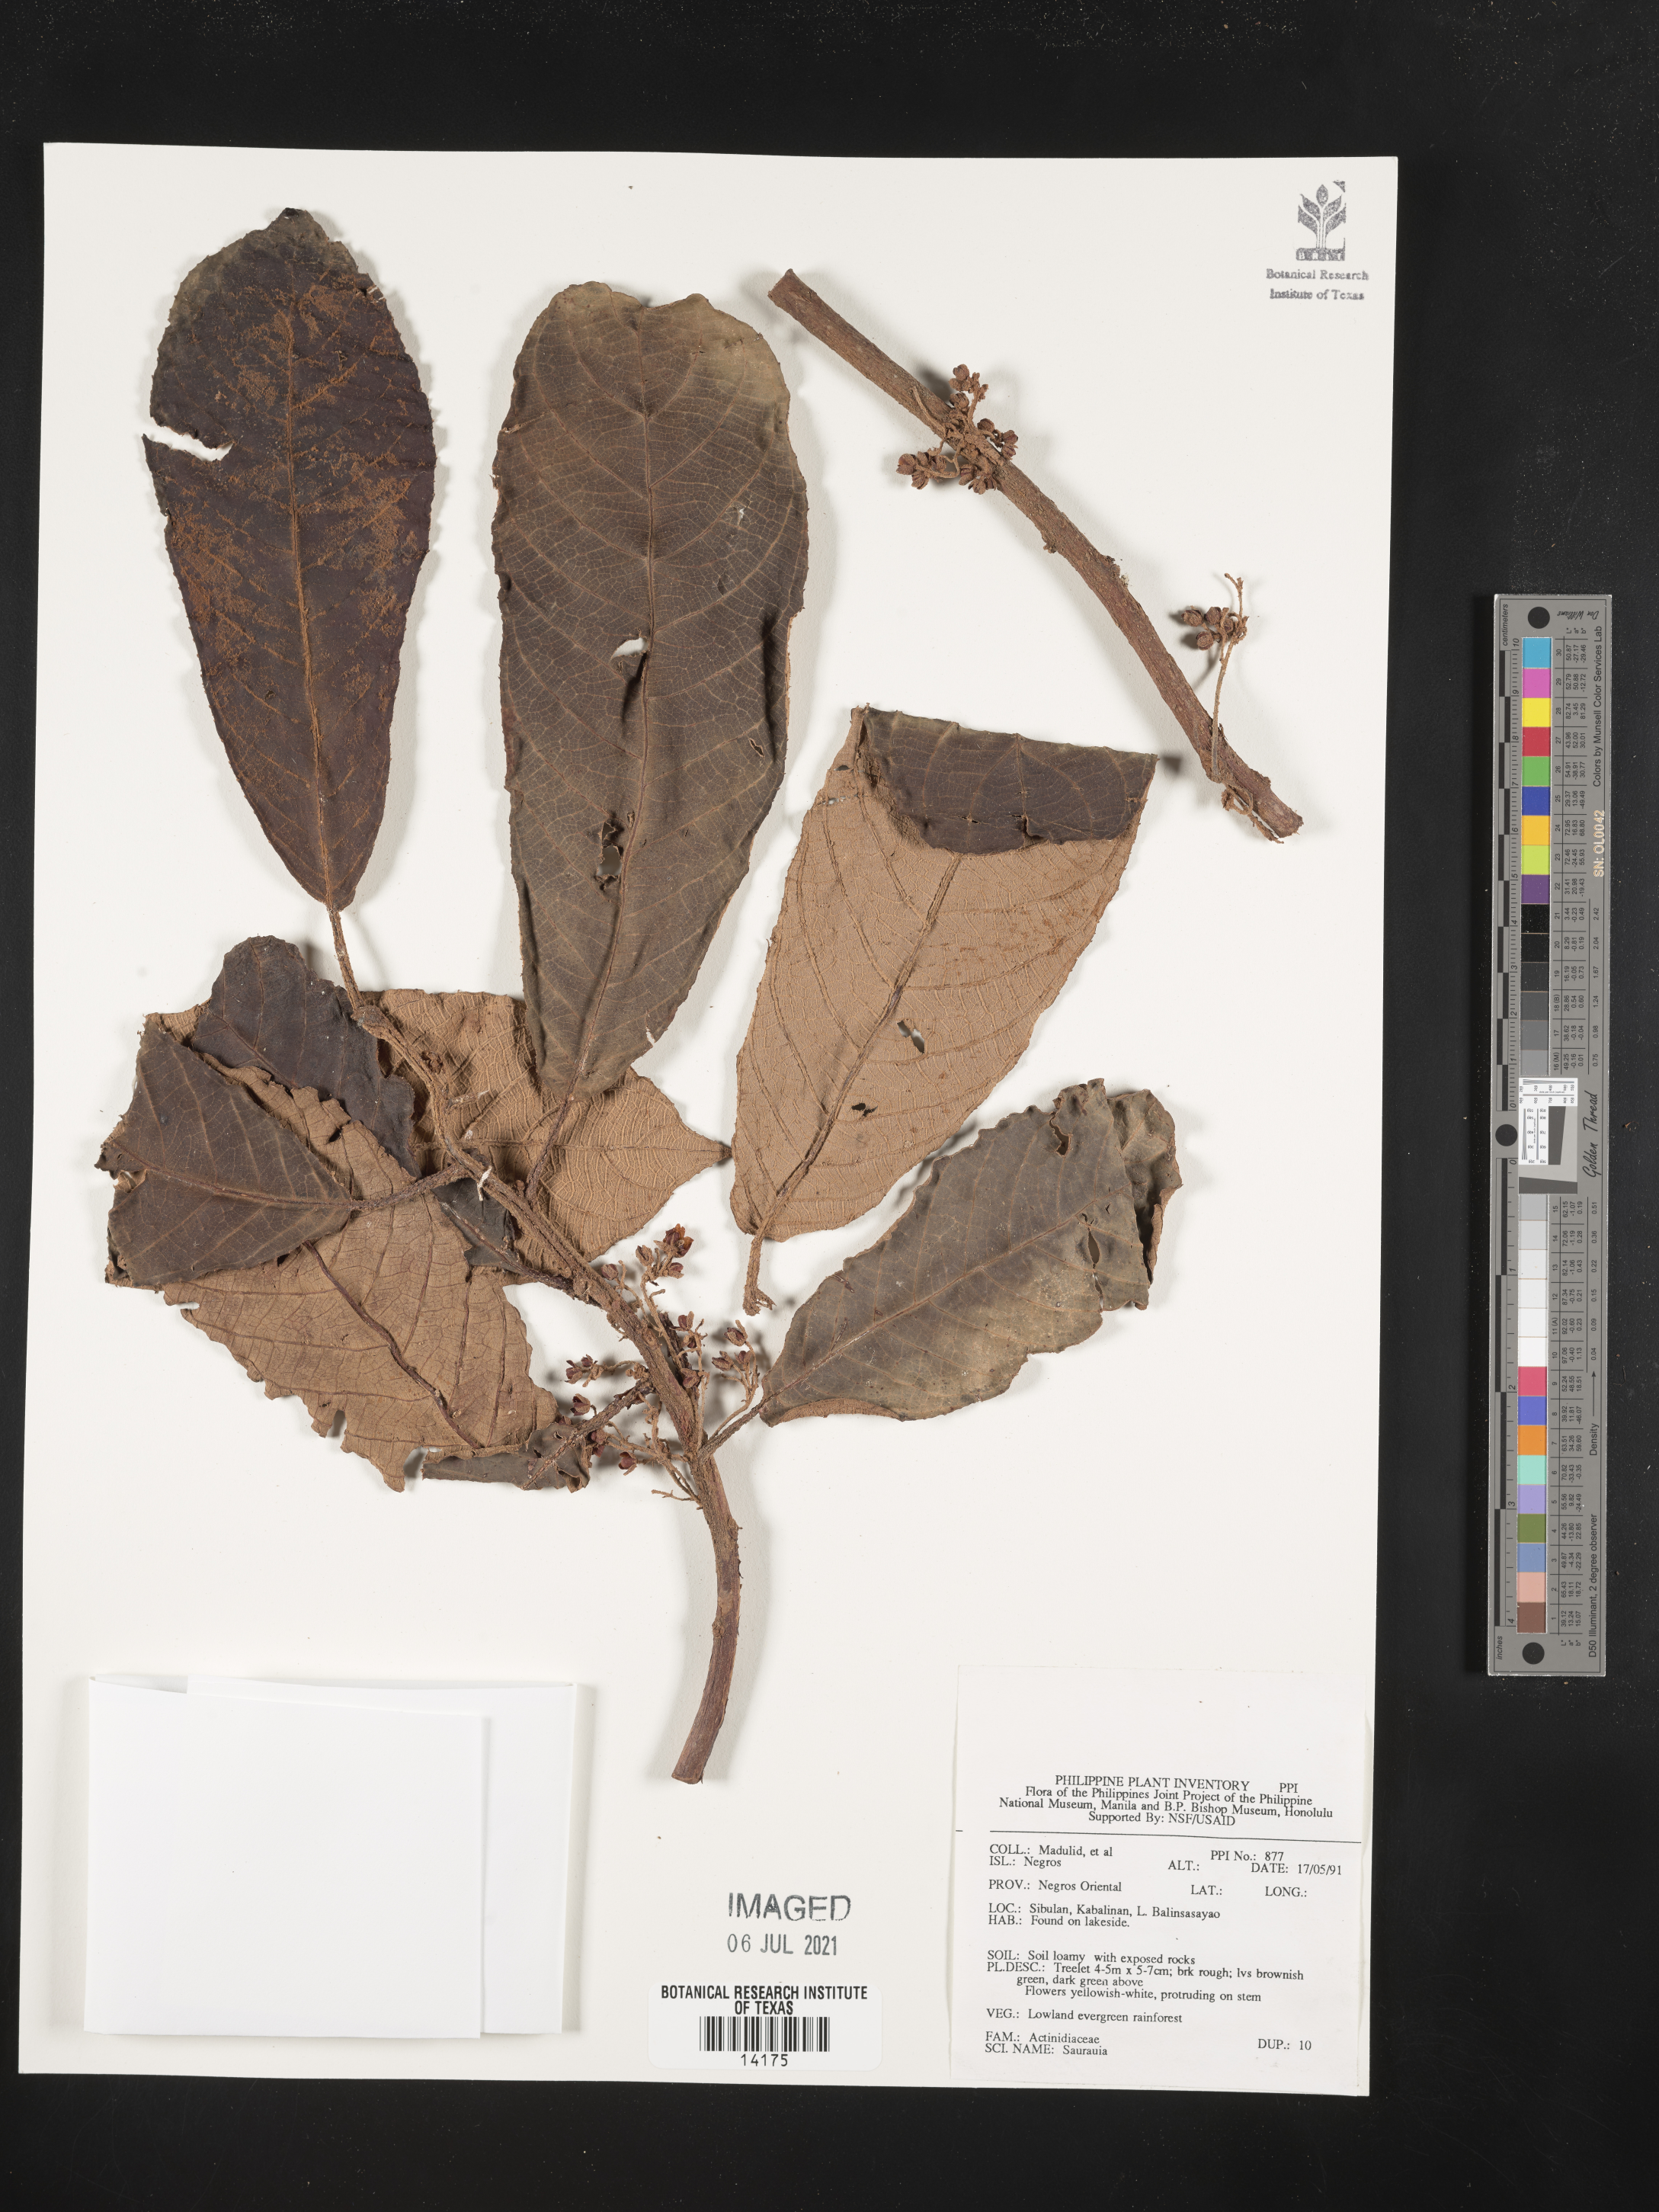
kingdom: Plantae
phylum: Tracheophyta
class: Magnoliopsida
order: Ericales
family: Actinidiaceae
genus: Saurauia
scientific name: Saurauia
